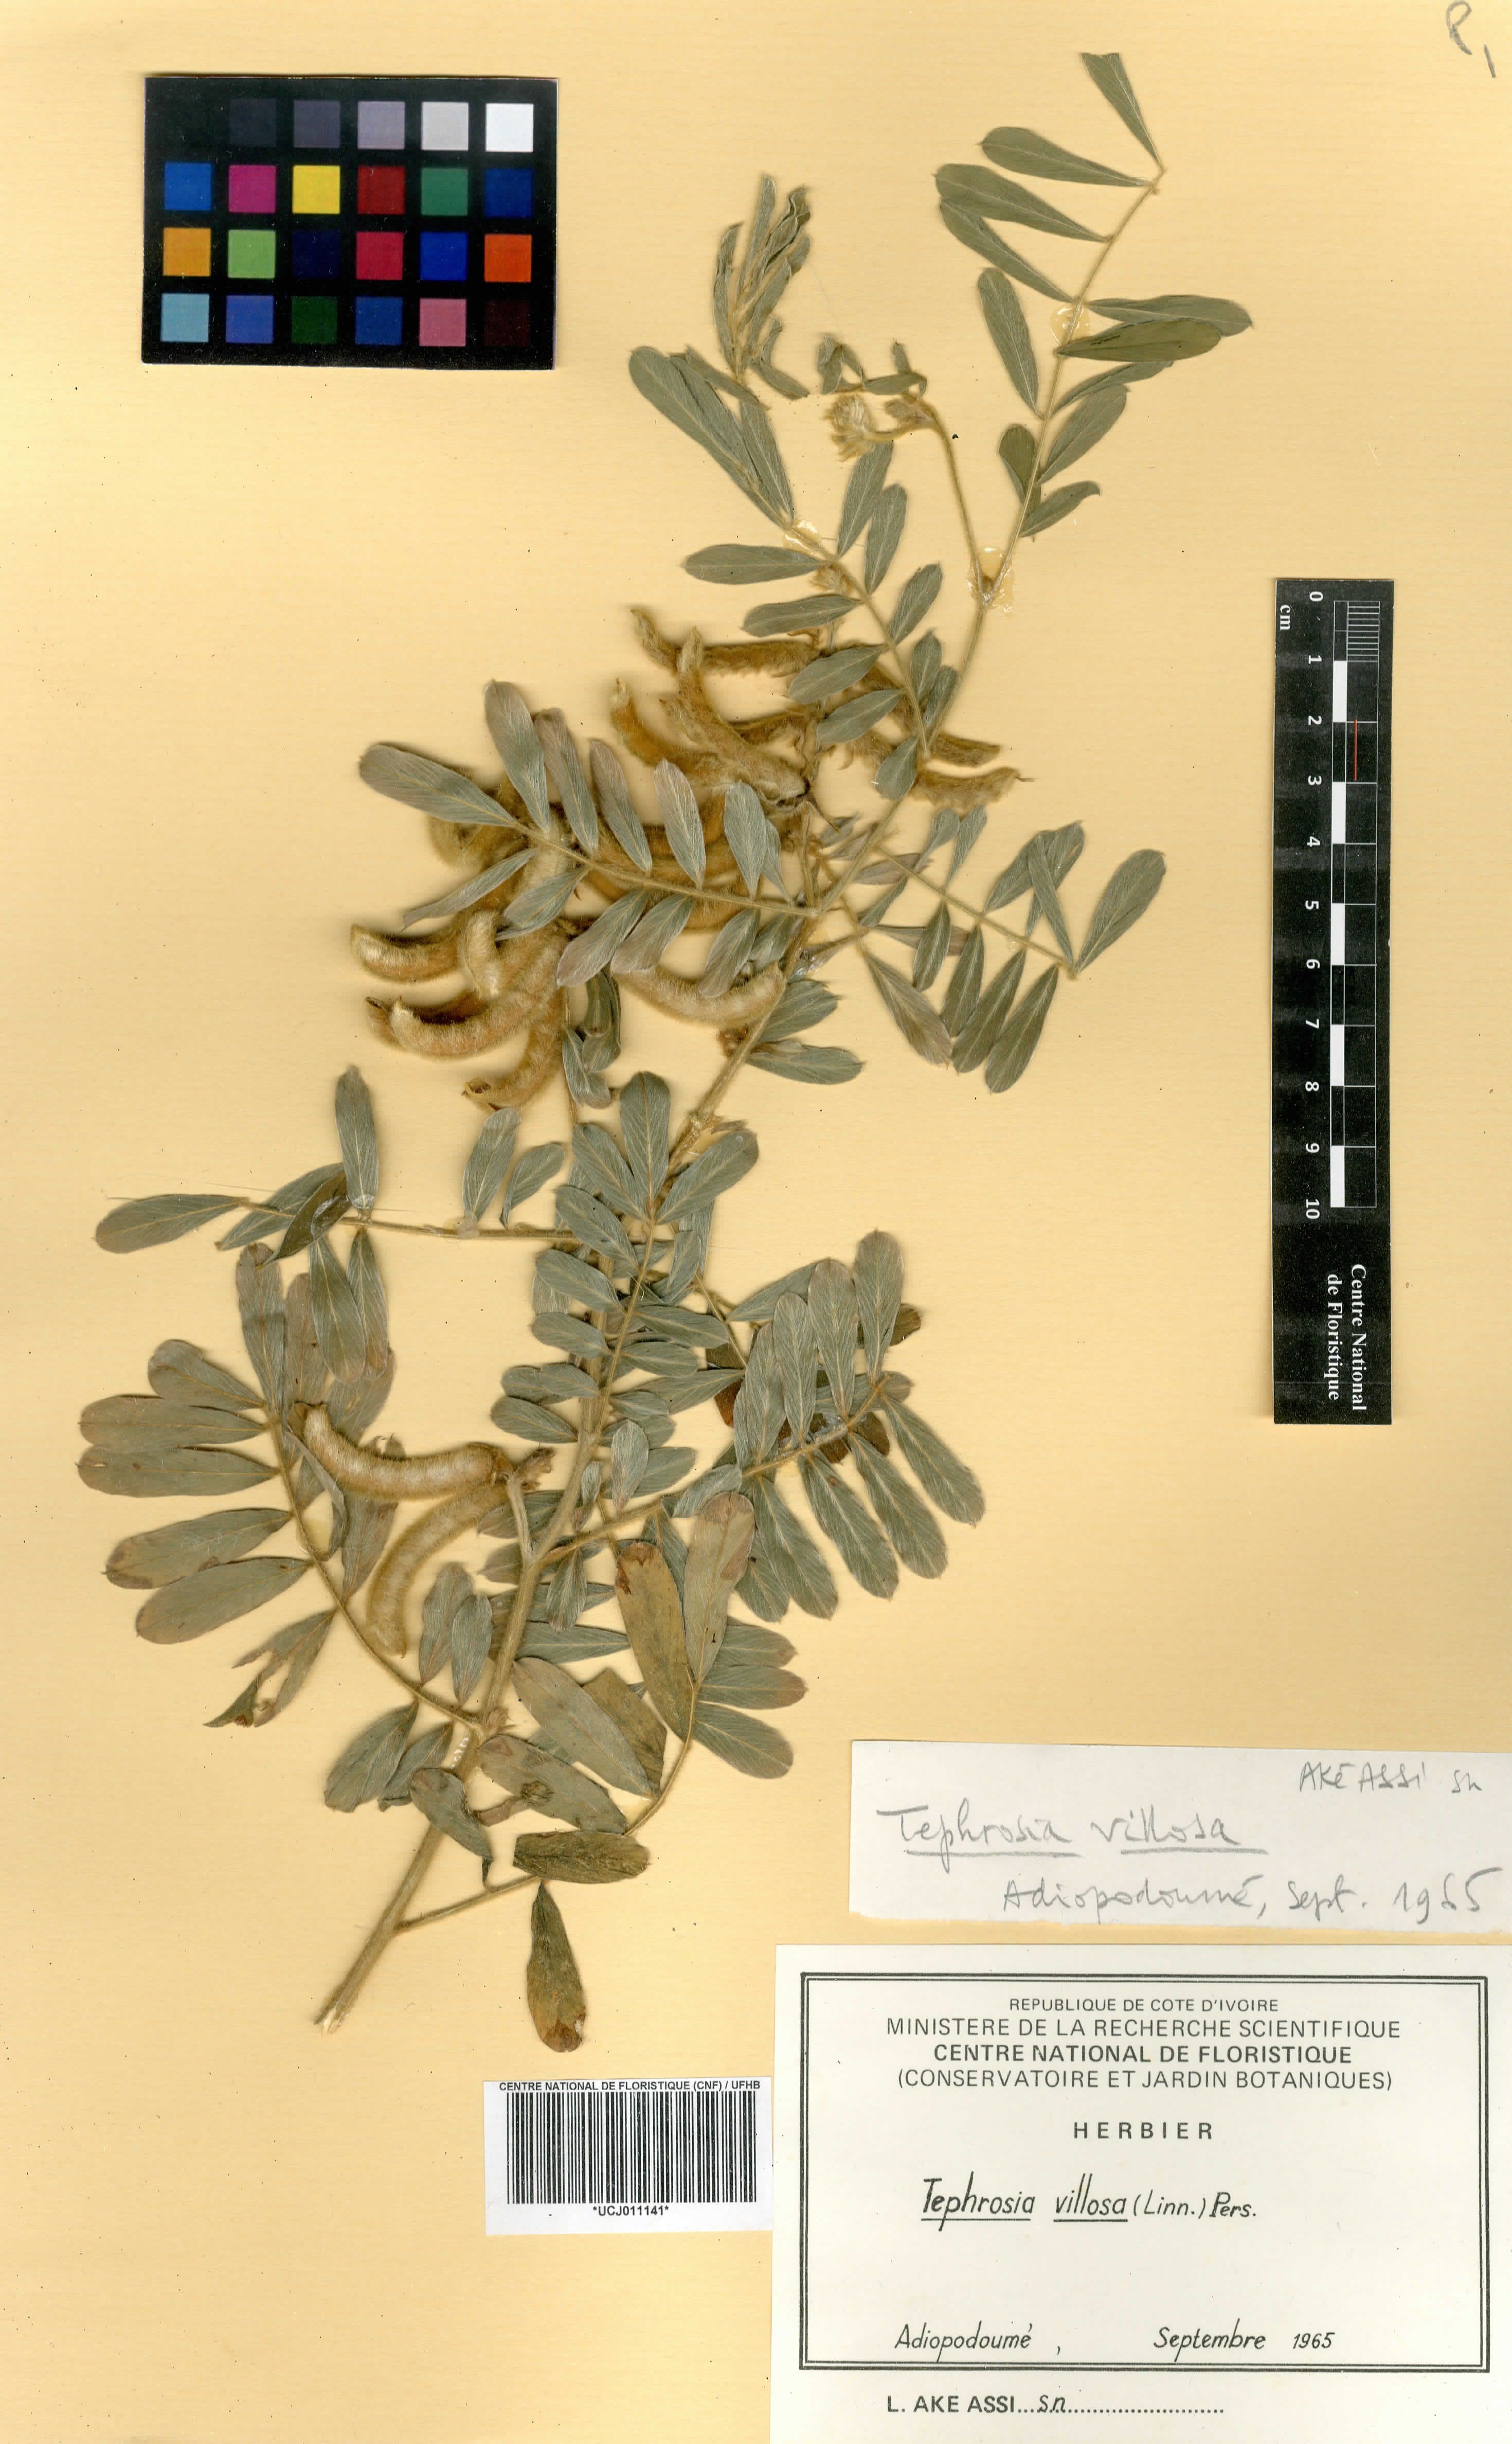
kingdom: Plantae
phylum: Tracheophyta
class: Magnoliopsida
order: Fabales
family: Fabaceae
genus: Tephrosia
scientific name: Tephrosia villosa
